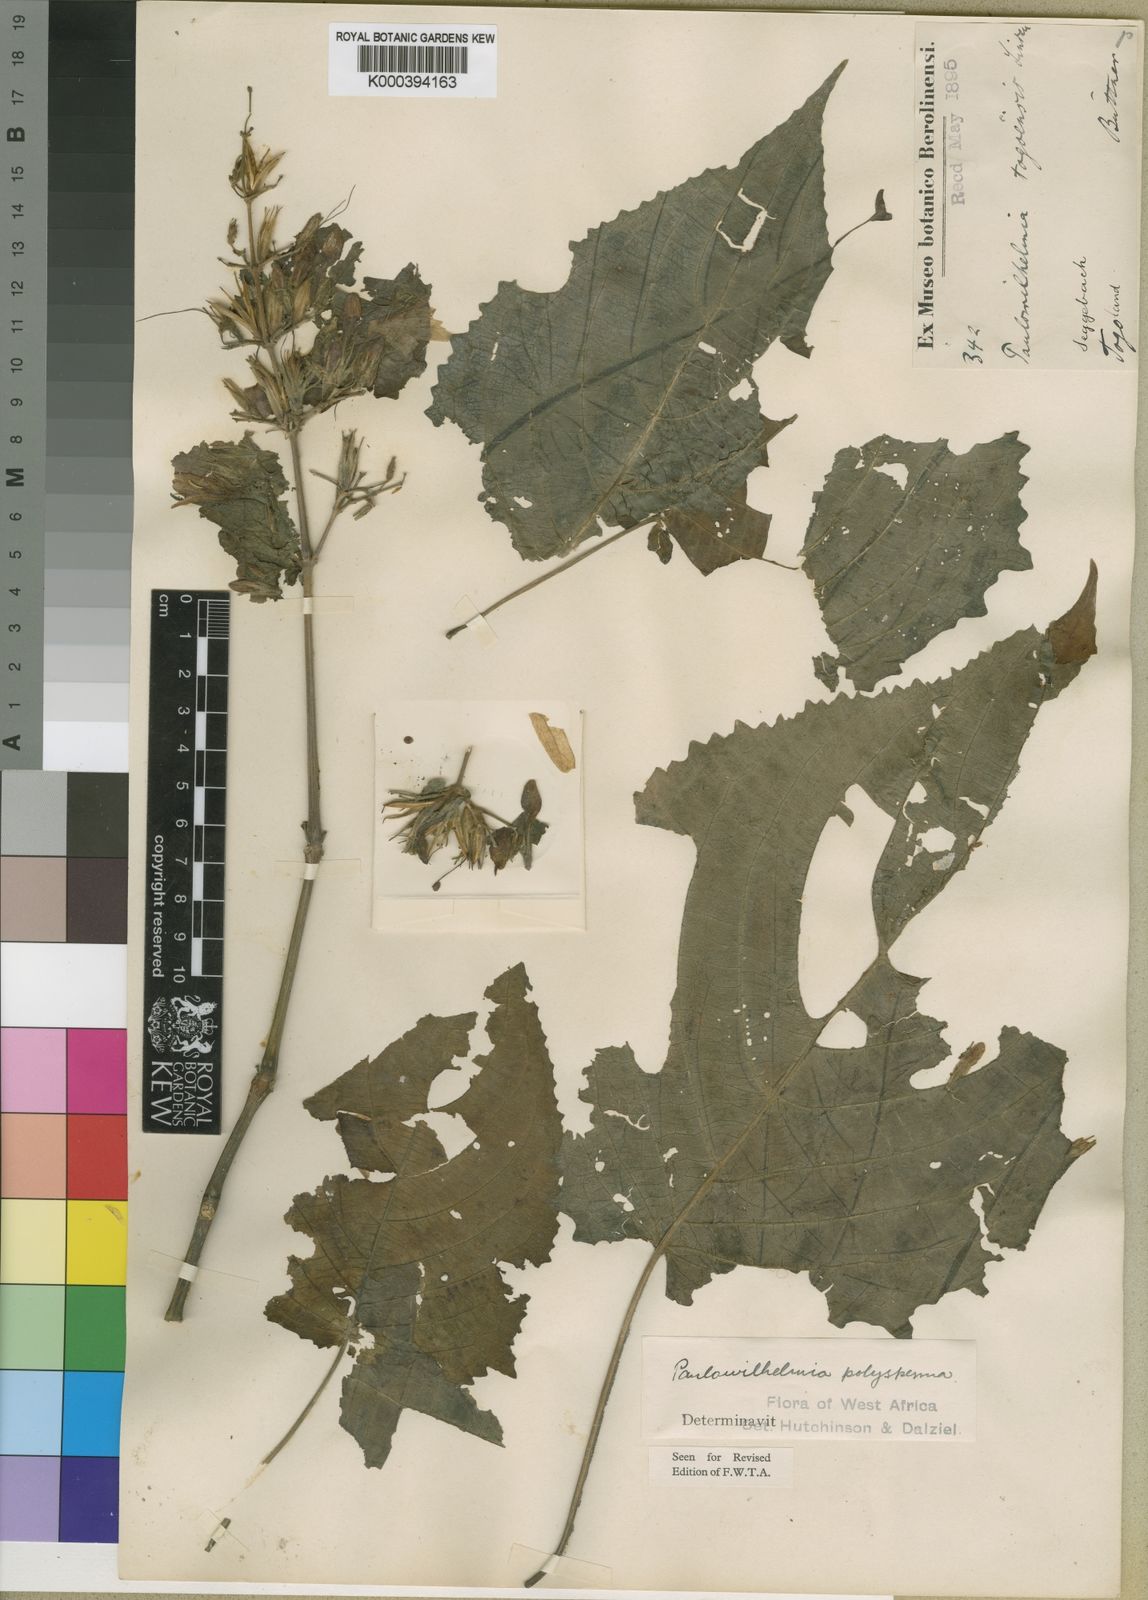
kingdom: Plantae
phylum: Tracheophyta
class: Magnoliopsida
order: Lamiales
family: Acanthaceae
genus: Eremomastax
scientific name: Eremomastax speciosa
